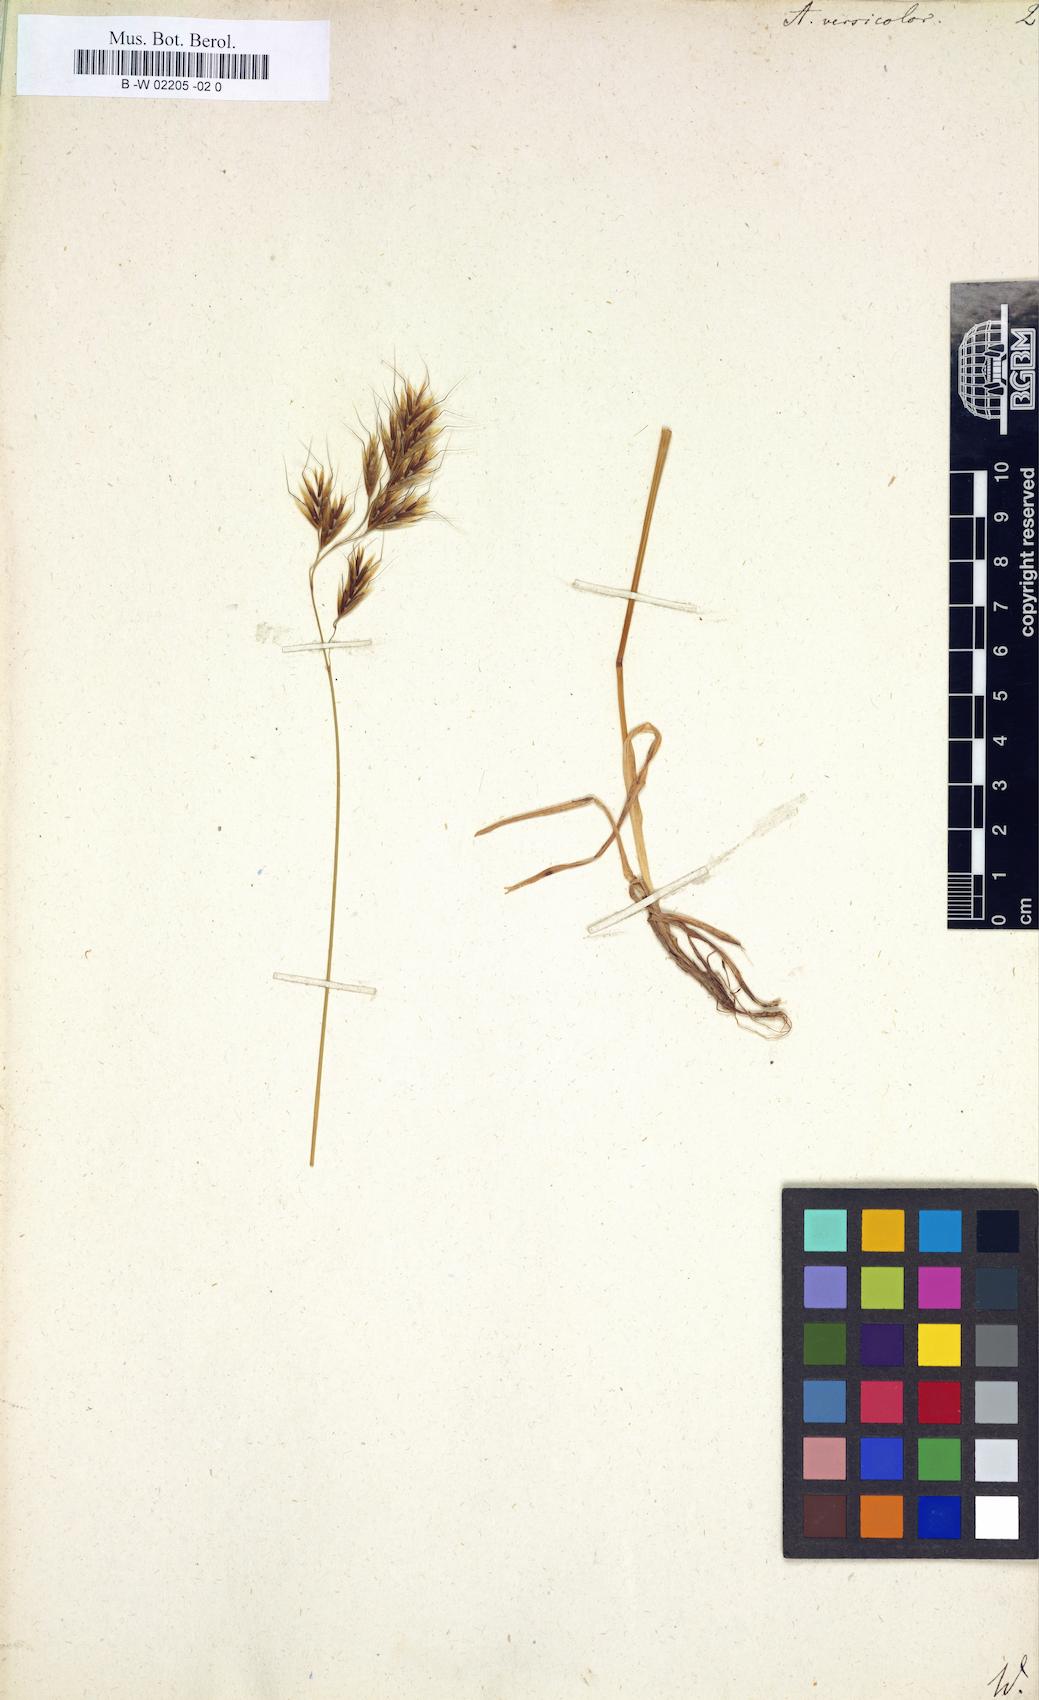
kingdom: Plantae
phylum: Tracheophyta
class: Liliopsida
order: Poales
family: Poaceae
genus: Helictochloa
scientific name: Helictochloa versicolor
